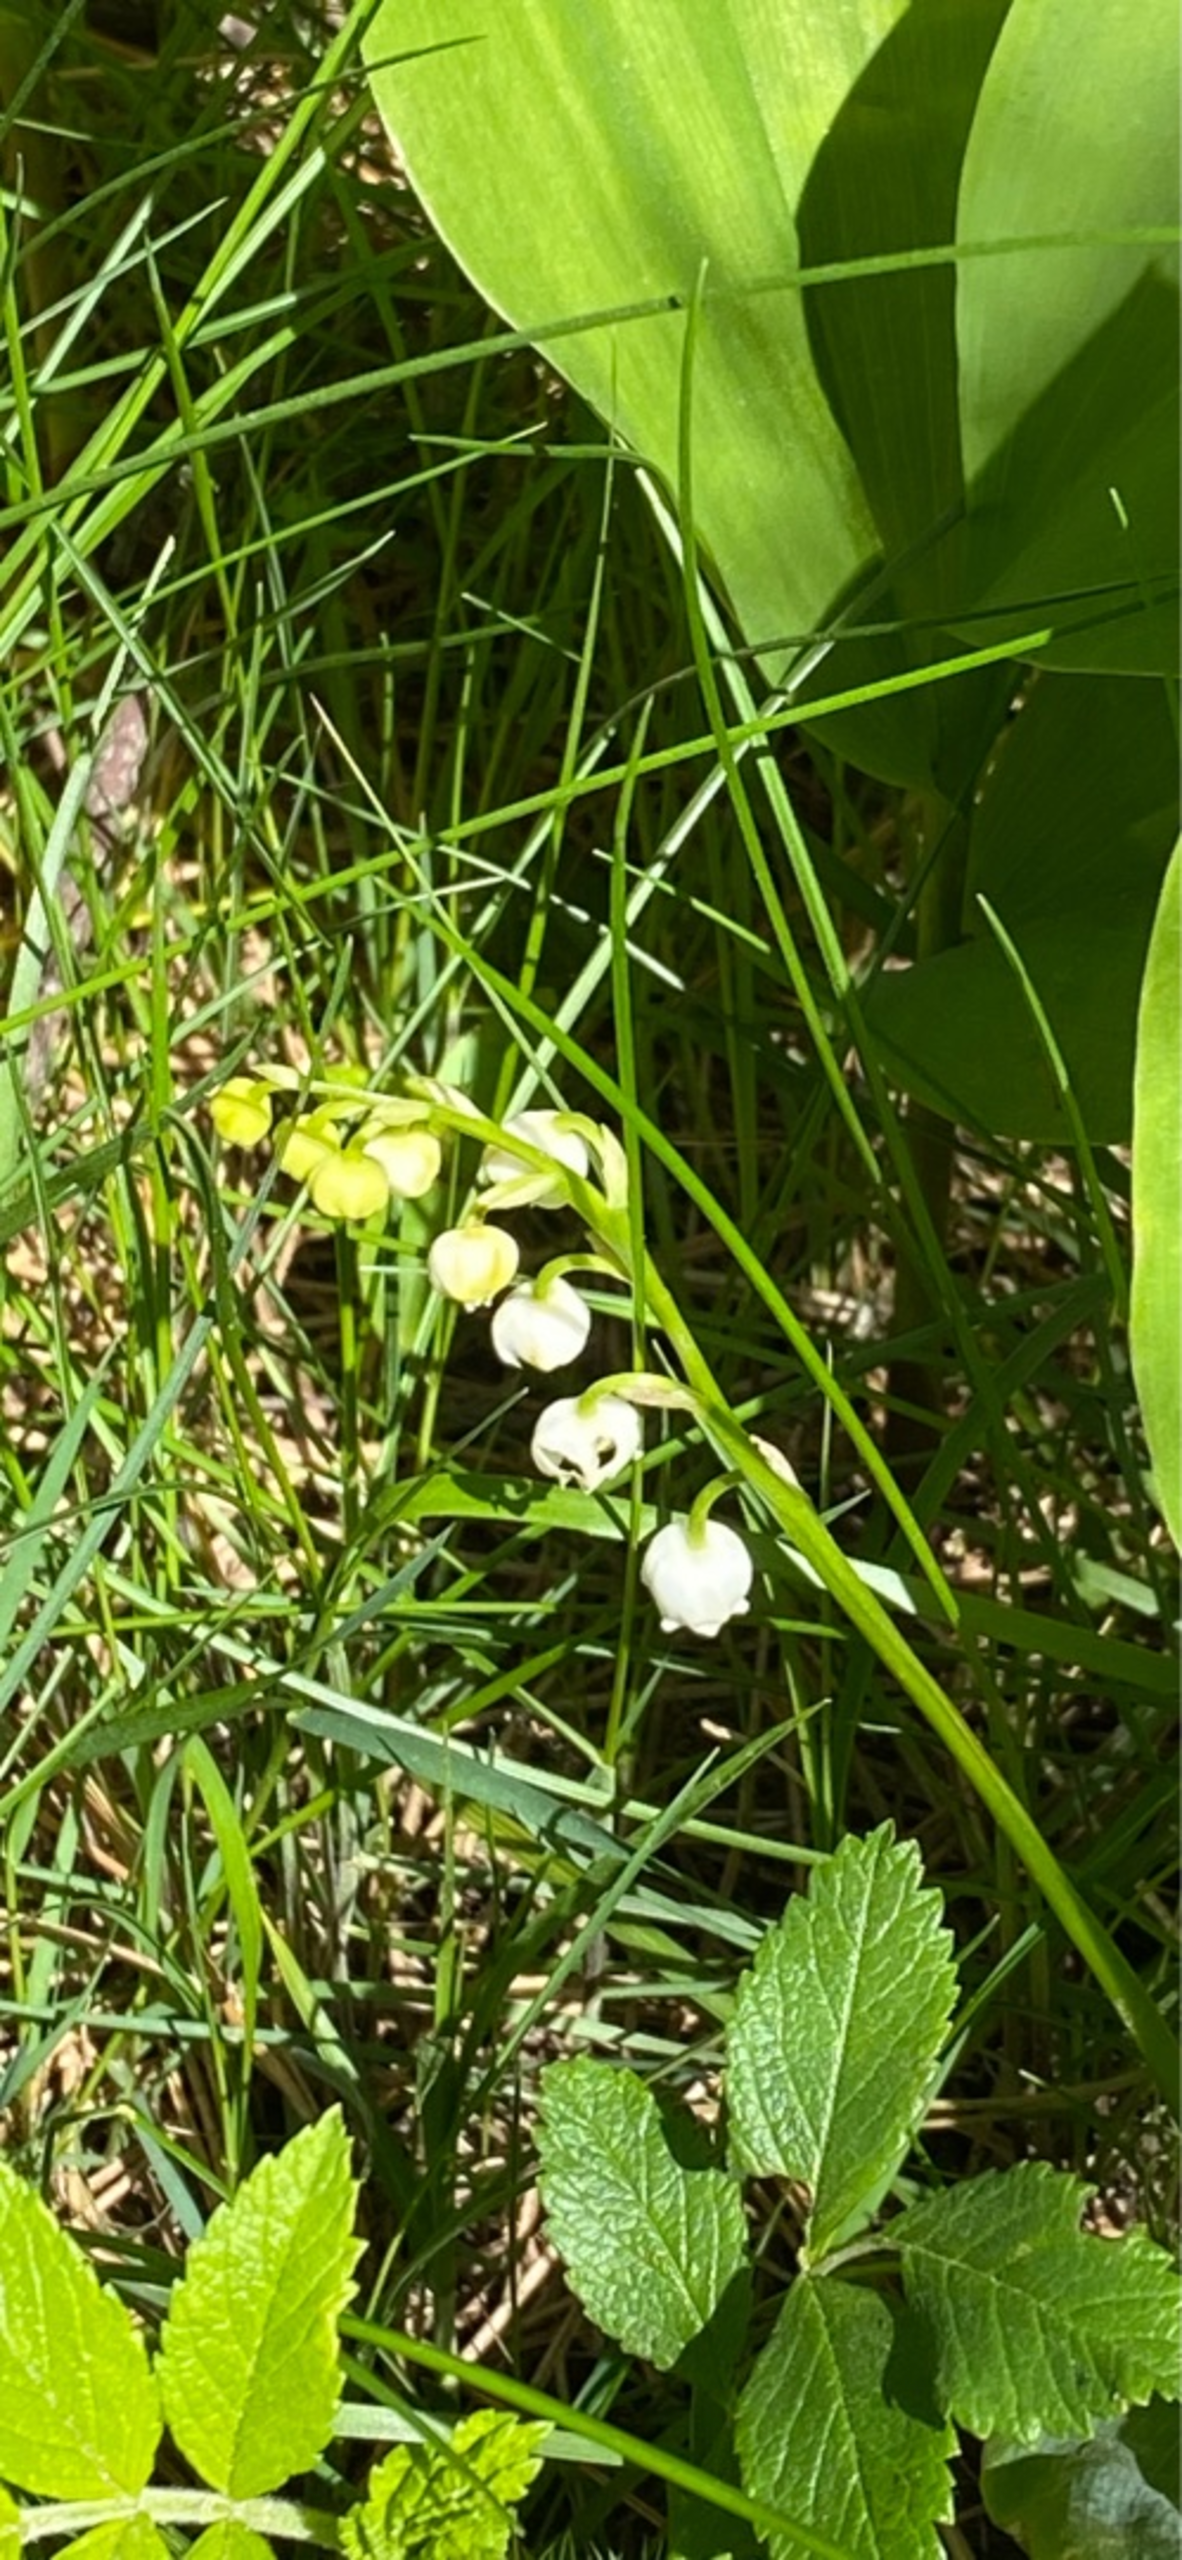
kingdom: Plantae
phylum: Tracheophyta
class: Liliopsida
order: Asparagales
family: Asparagaceae
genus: Convallaria
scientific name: Convallaria majalis
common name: Liljekonval
